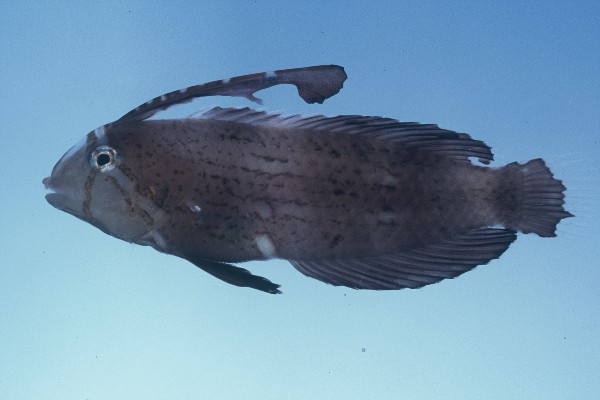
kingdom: Animalia
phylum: Chordata
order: Perciformes
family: Labridae
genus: Iniistius
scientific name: Iniistius pavo
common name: Peacock wrasse
